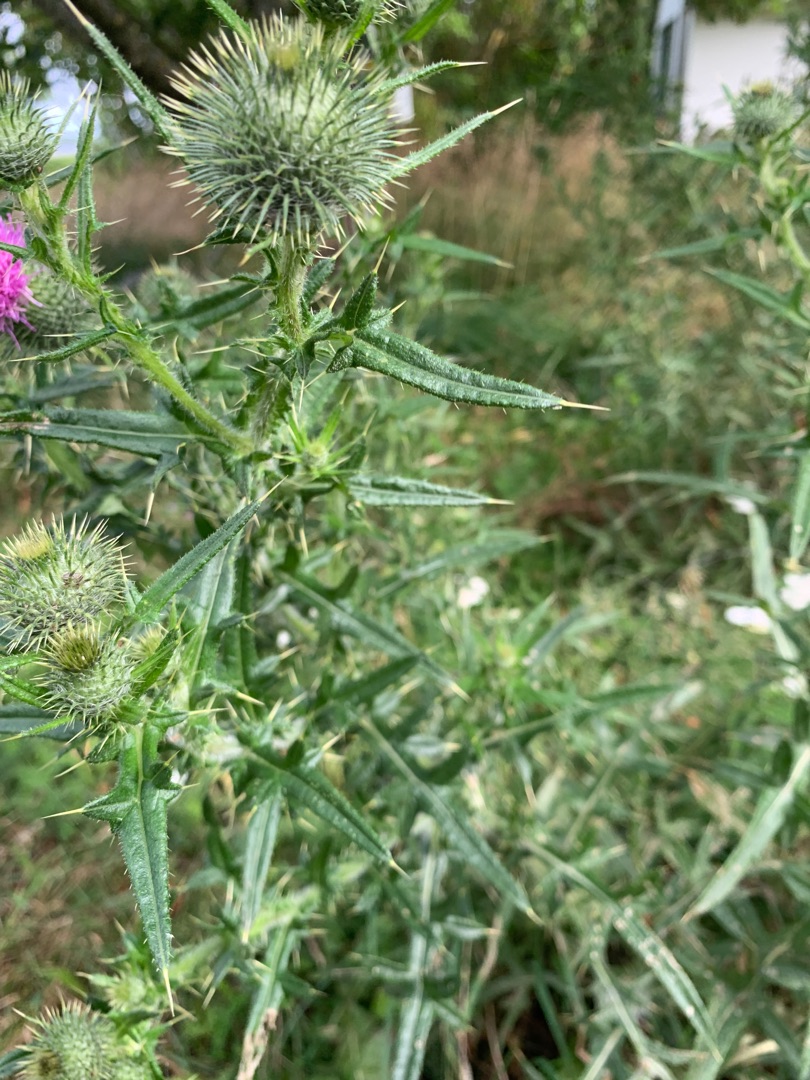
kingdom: Plantae
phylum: Tracheophyta
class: Magnoliopsida
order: Asterales
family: Asteraceae
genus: Cirsium
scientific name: Cirsium vulgare
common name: Horse-tidsel
